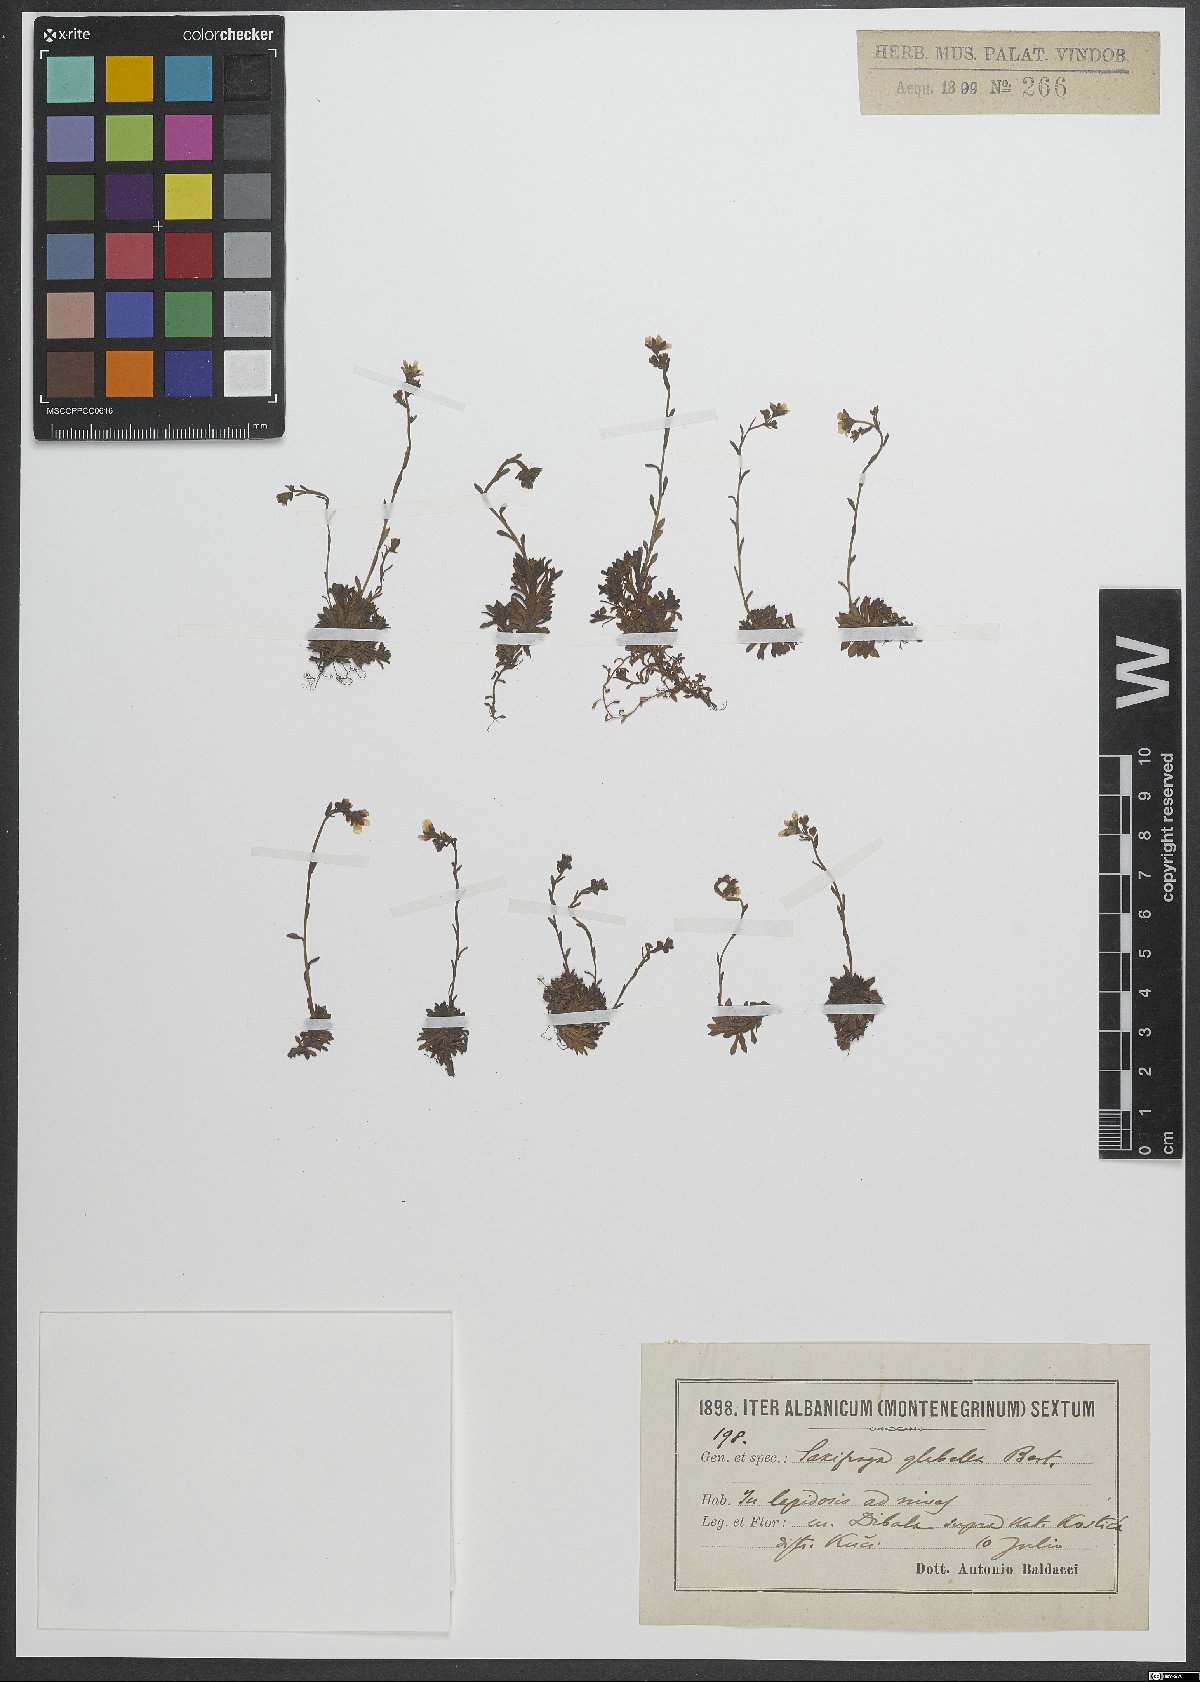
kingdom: Plantae
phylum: Tracheophyta
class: Magnoliopsida
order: Saxifragales
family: Saxifragaceae
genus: Saxifraga
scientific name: Saxifraga glabella
